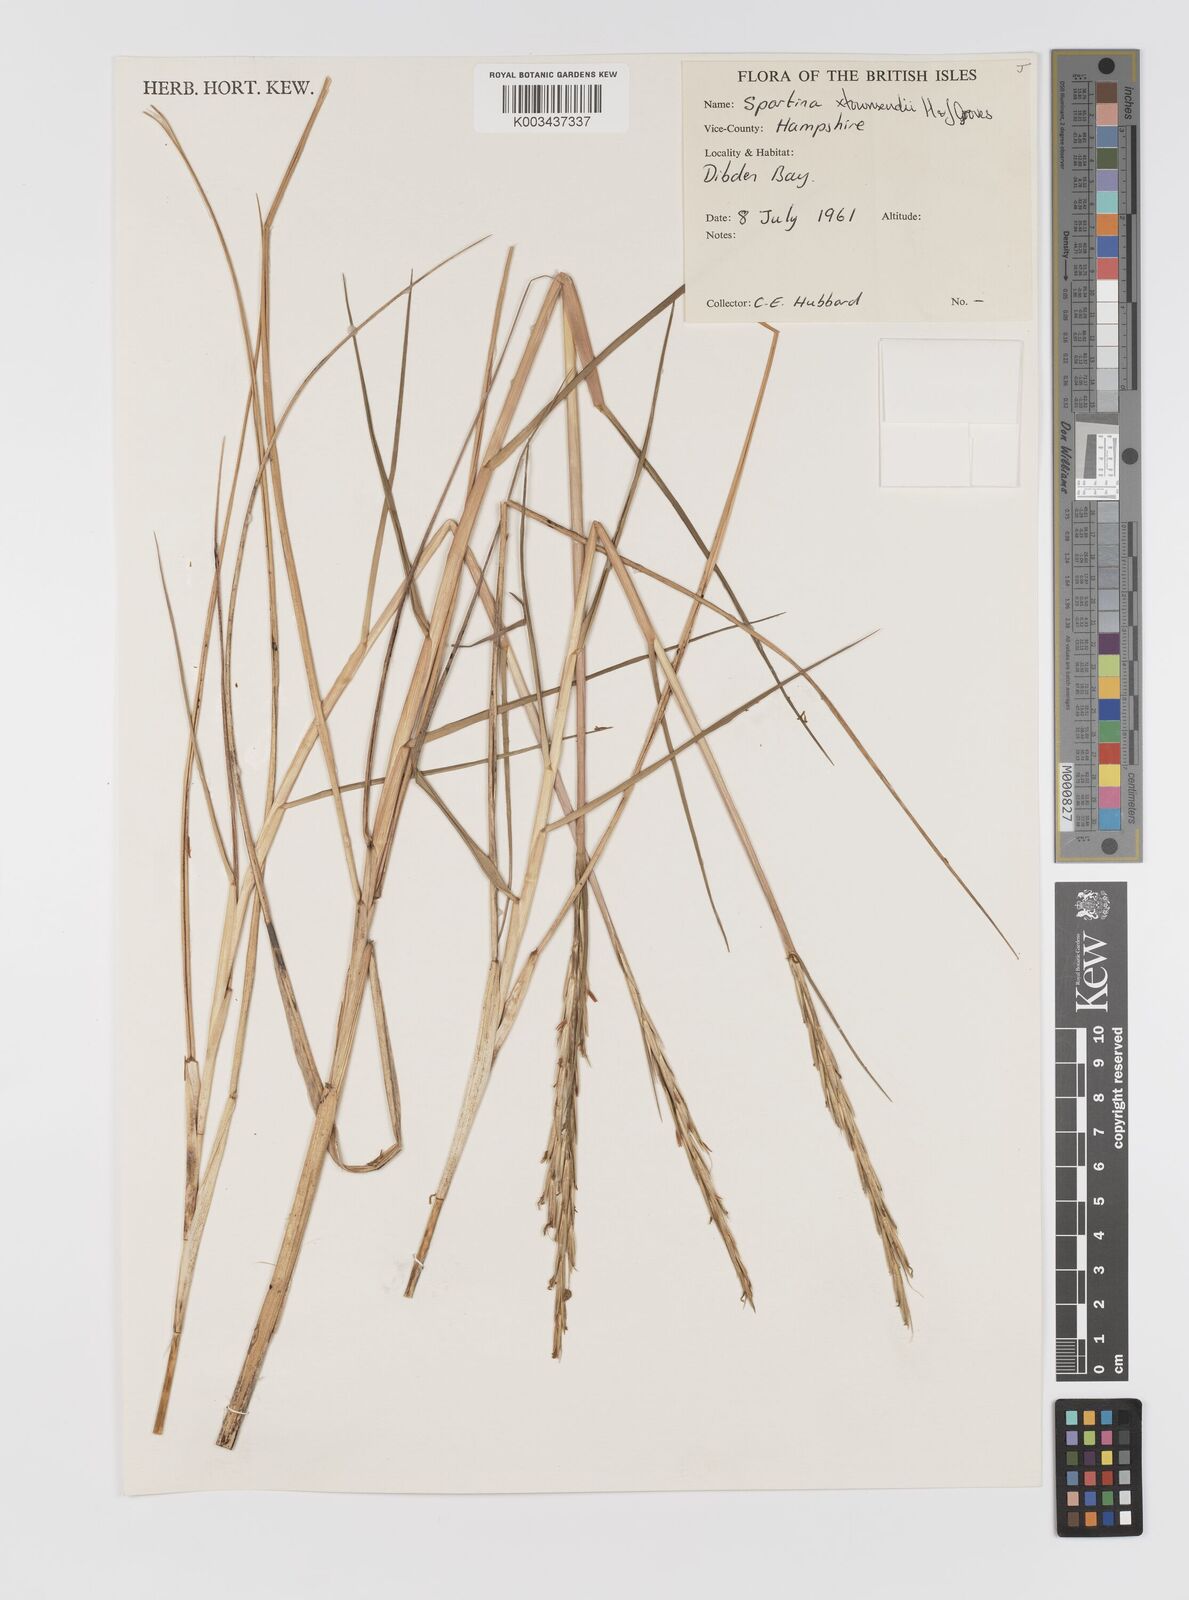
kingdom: Plantae
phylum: Tracheophyta
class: Liliopsida
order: Poales
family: Poaceae
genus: Sporobolus
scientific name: Sporobolus townsendii
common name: Townsend's cordgrass
